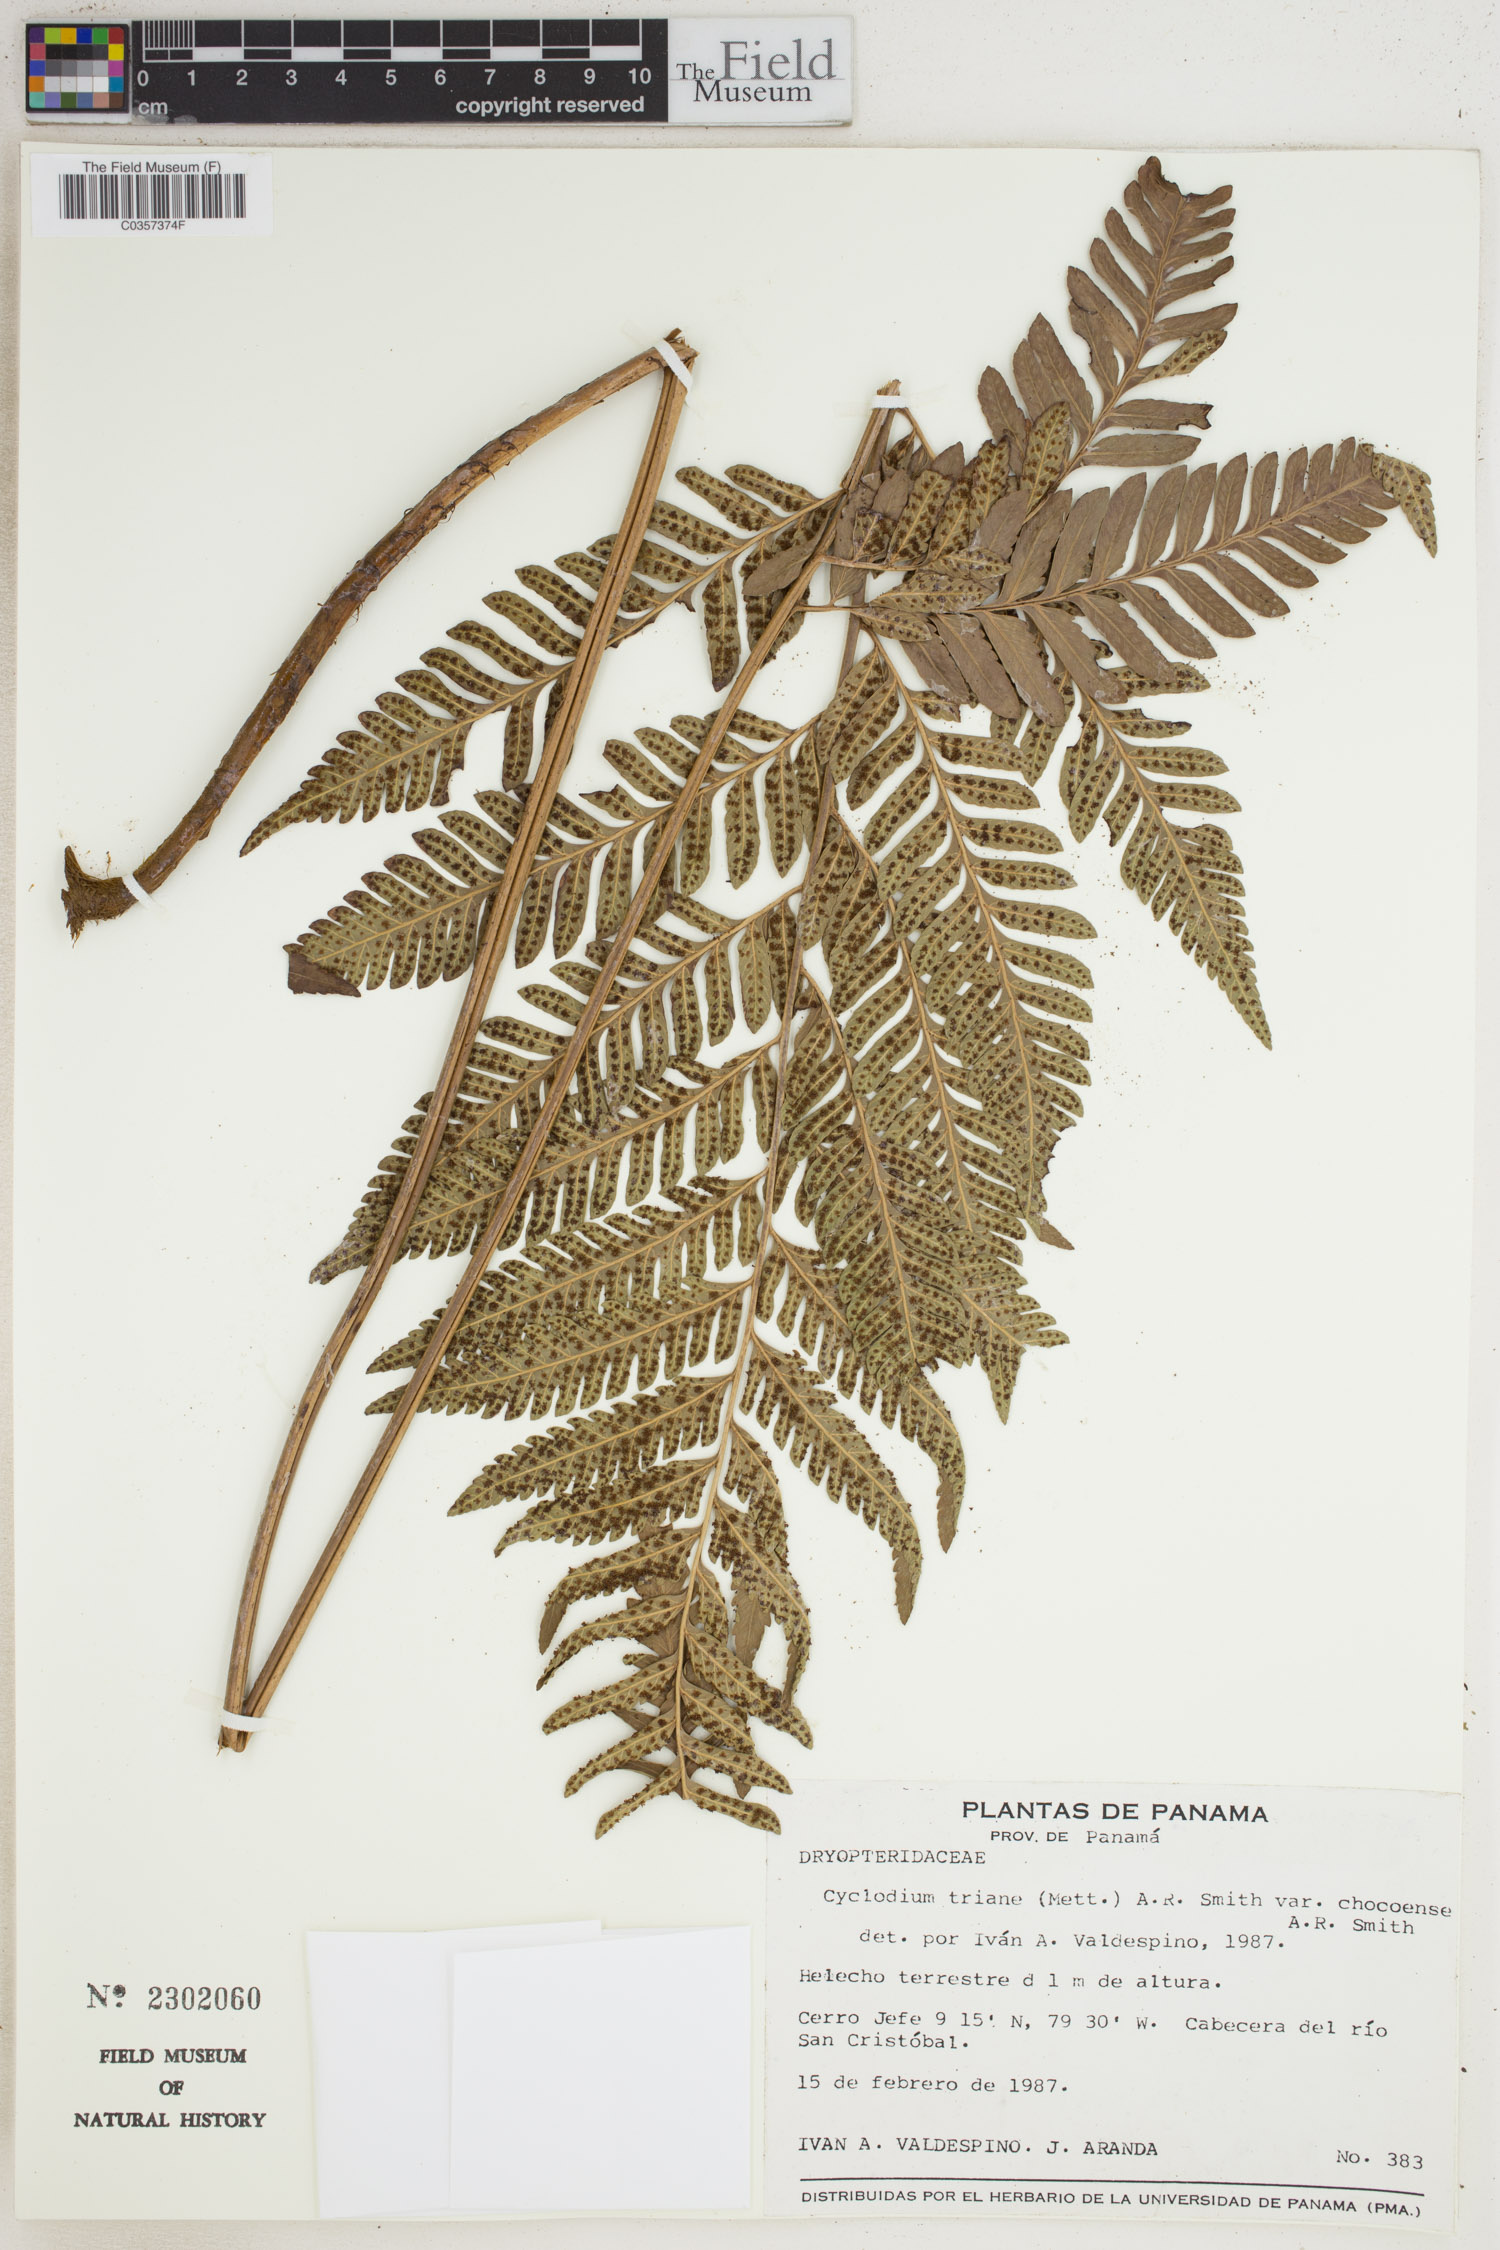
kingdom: Plantae
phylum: Tracheophyta
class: Polypodiopsida
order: Polypodiales
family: Dryopteridaceae
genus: Cyclodium
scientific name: Cyclodium trianae
